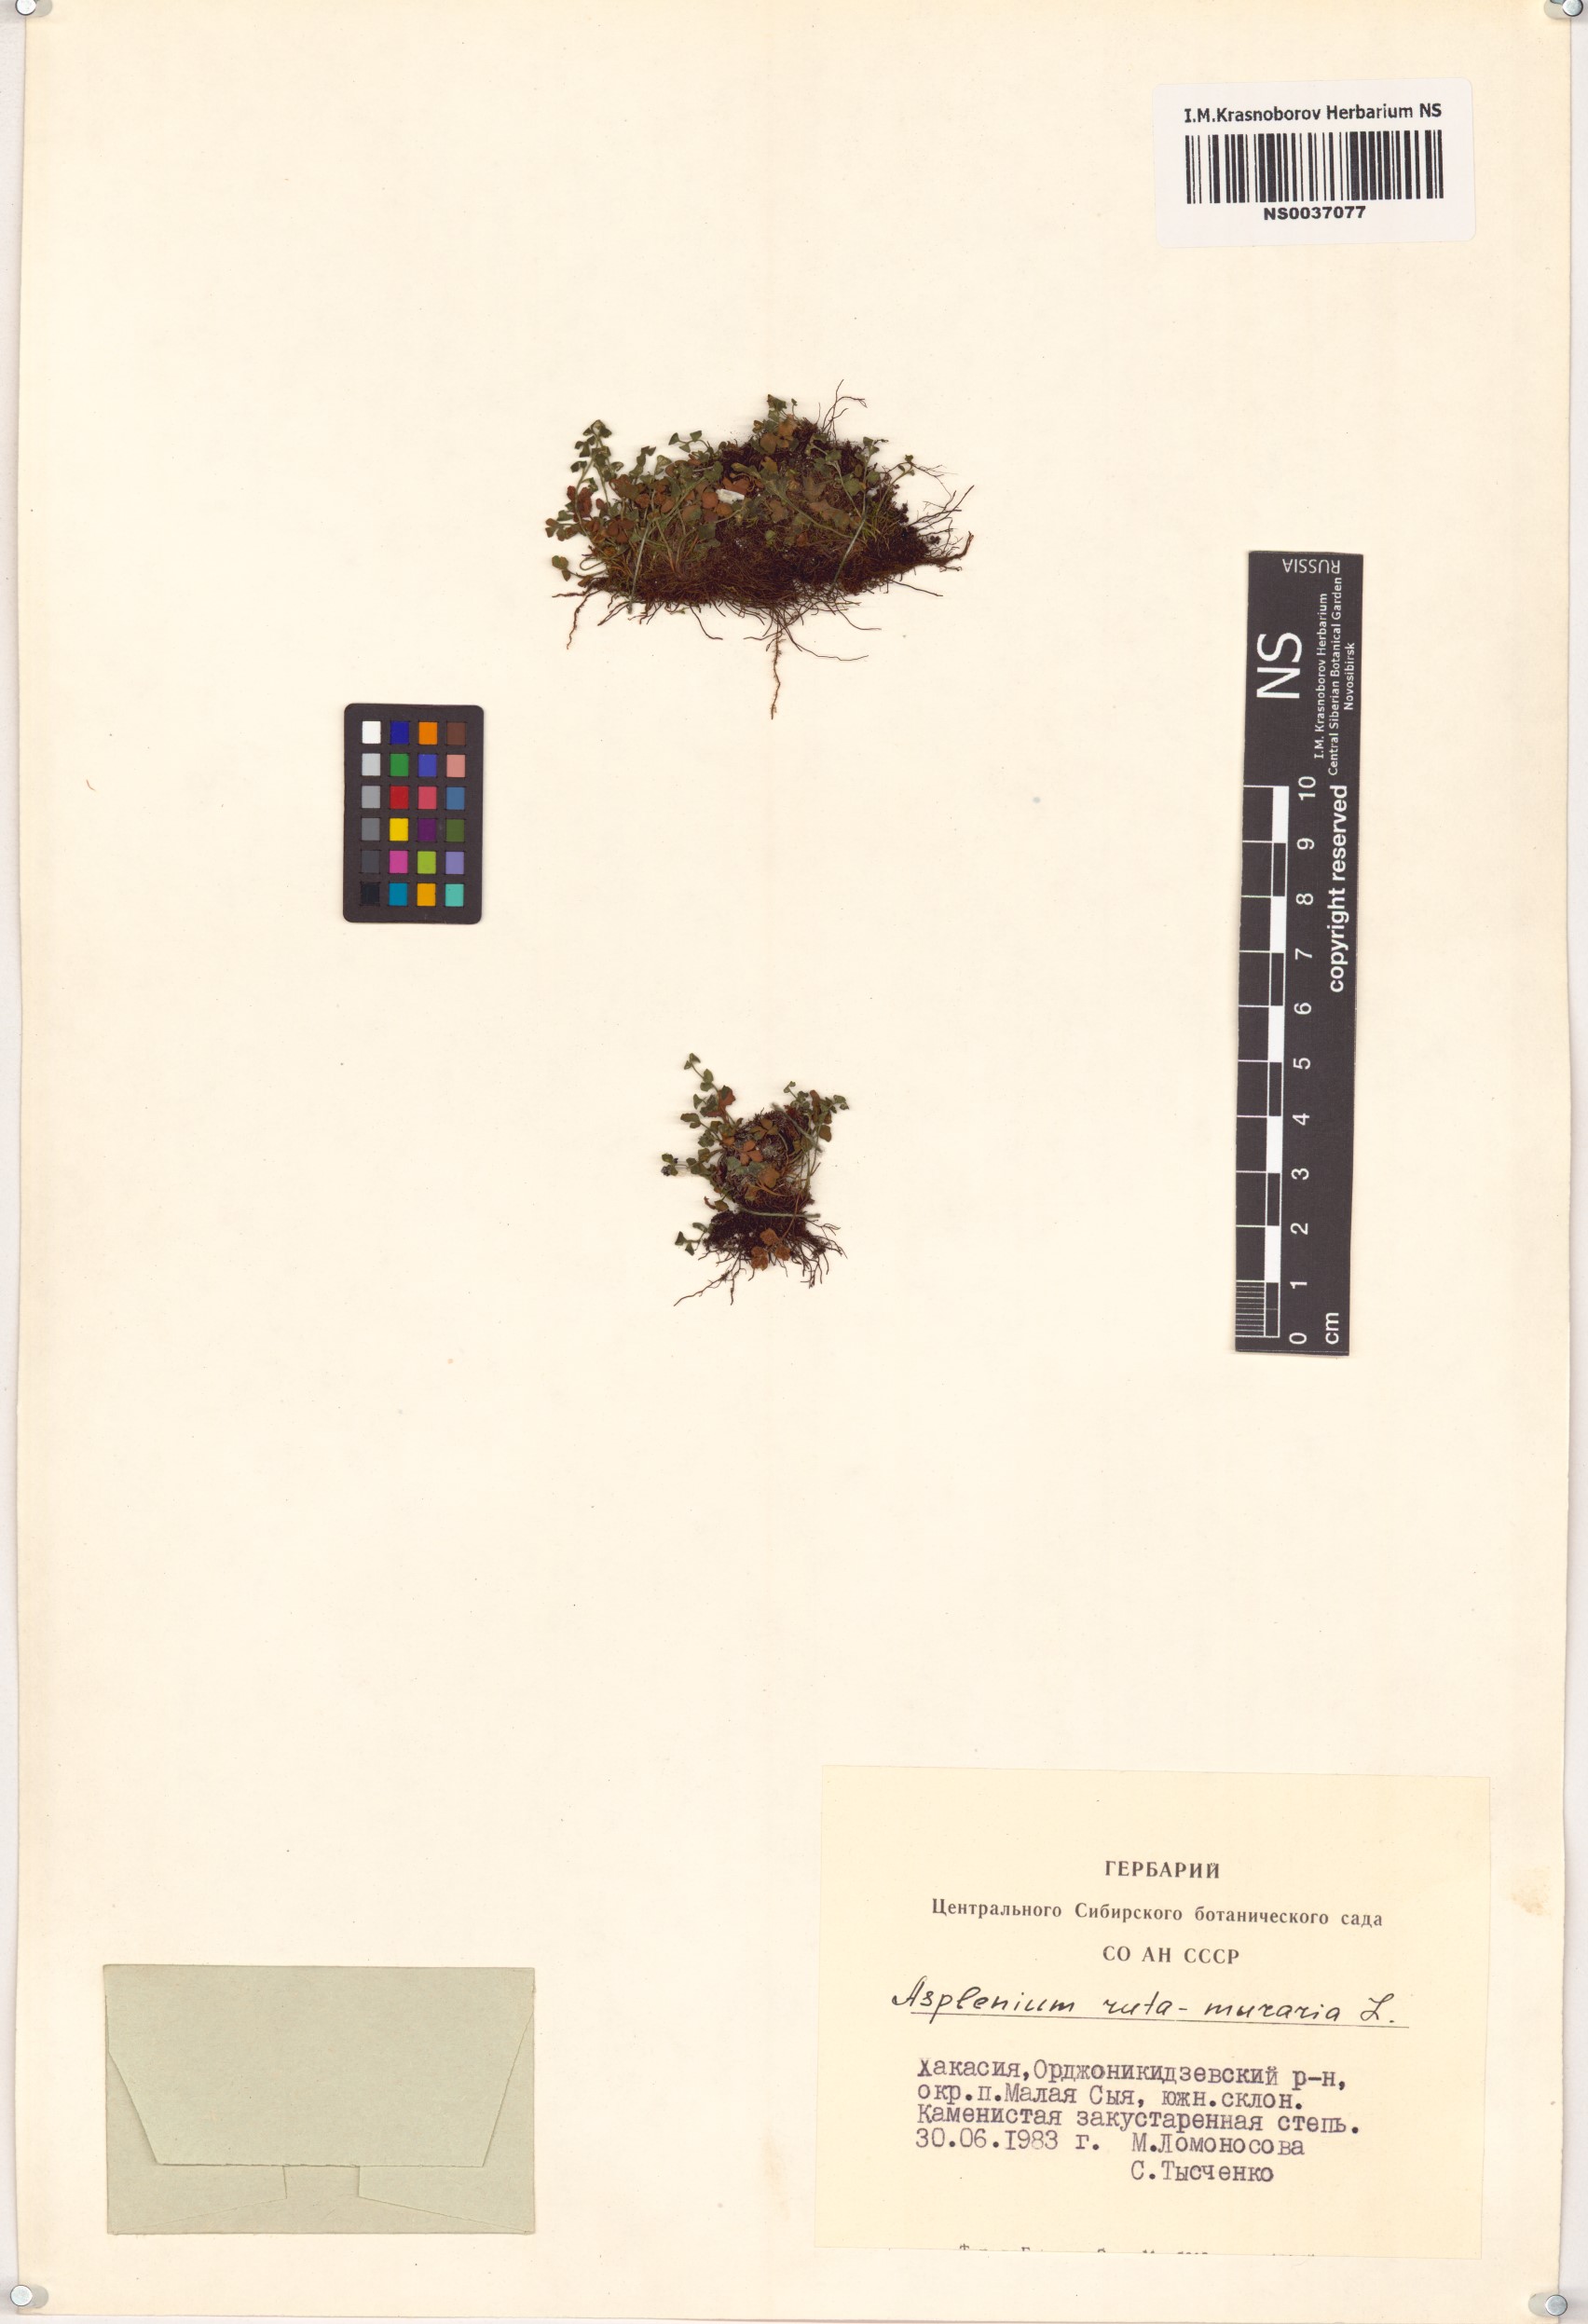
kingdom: Plantae
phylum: Tracheophyta
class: Polypodiopsida
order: Polypodiales
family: Aspleniaceae
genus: Asplenium
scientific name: Asplenium ruta-muraria
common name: Wall-rue
